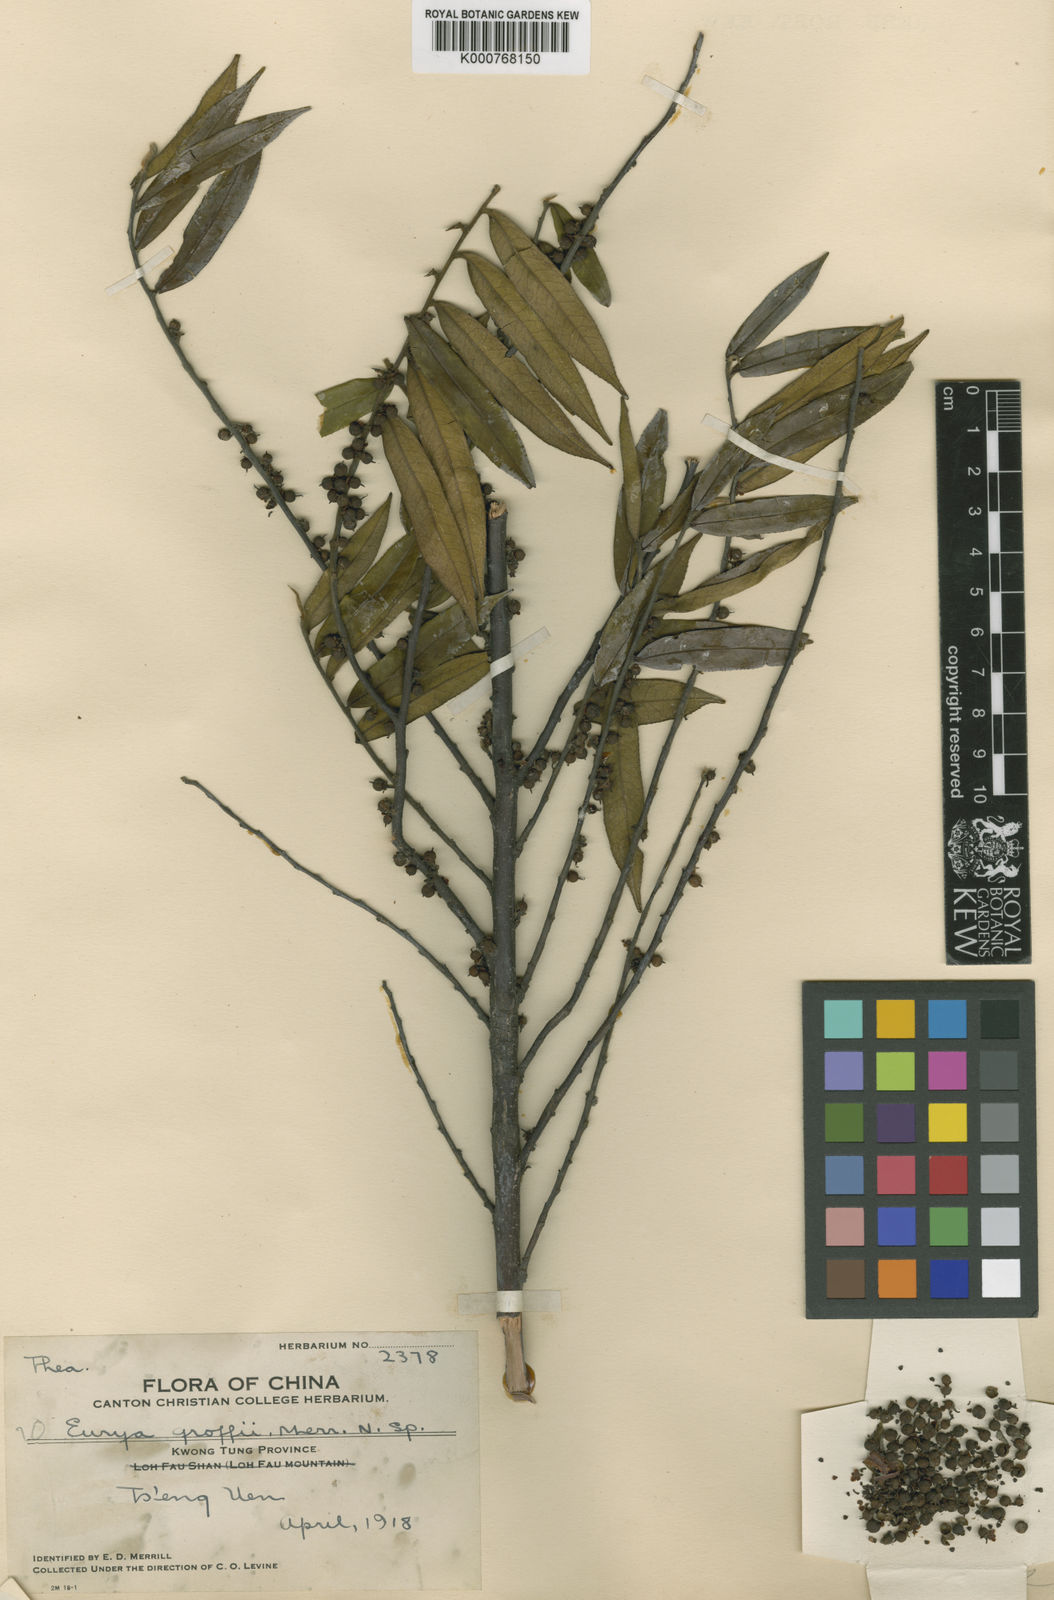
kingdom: Plantae
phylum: Tracheophyta
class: Magnoliopsida
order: Ericales
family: Pentaphylacaceae
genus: Eurya
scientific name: Eurya groffii
